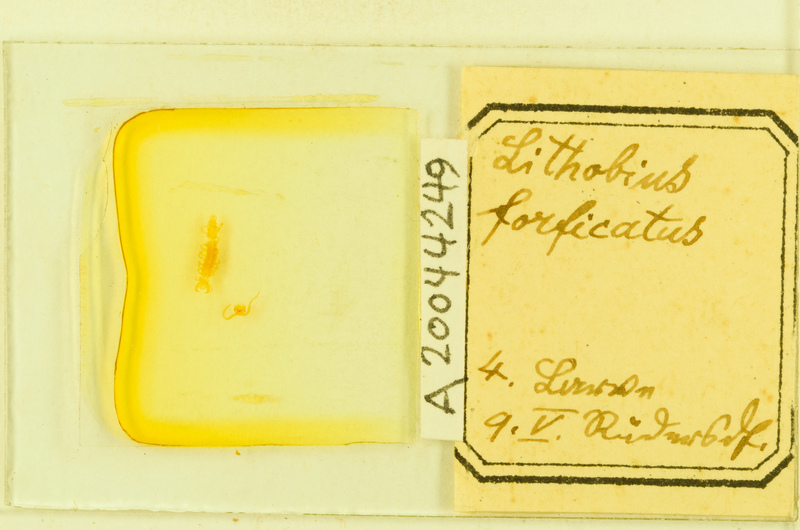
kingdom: Animalia
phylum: Arthropoda
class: Chilopoda
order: Lithobiomorpha
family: Lithobiidae
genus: Lithobius
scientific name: Lithobius forficatus
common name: Centipede
